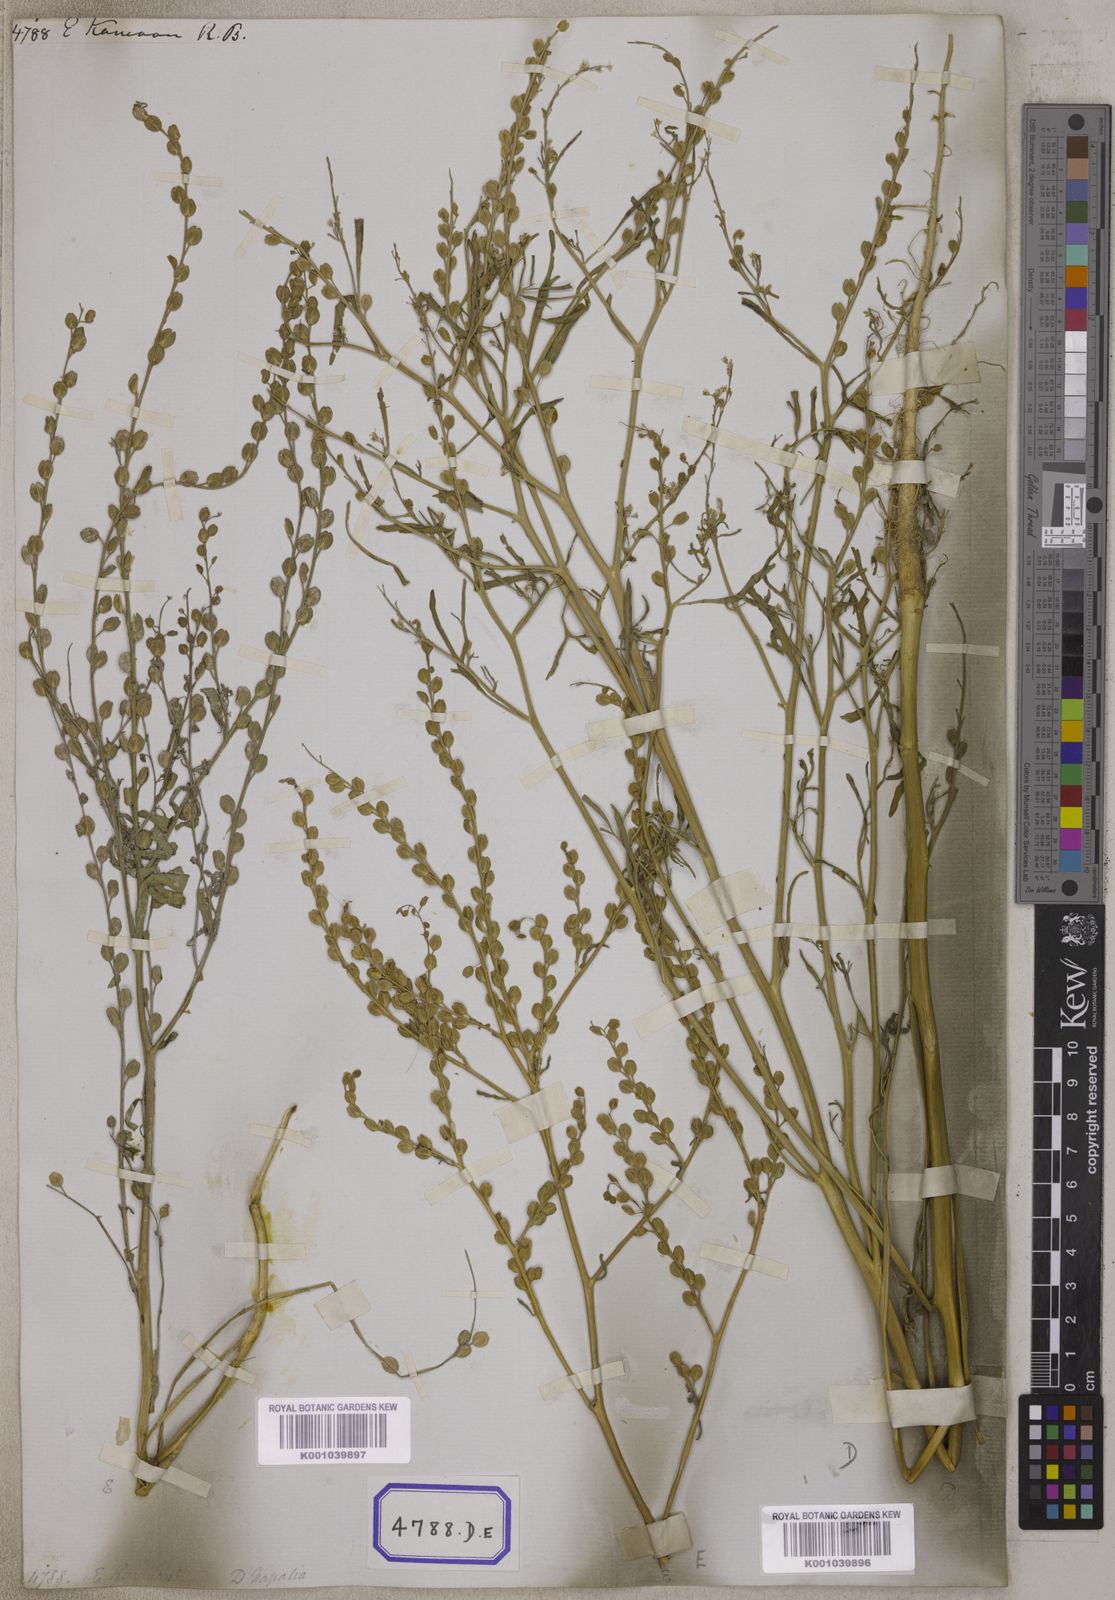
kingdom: Plantae
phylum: Tracheophyta
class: Magnoliopsida
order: Brassicales
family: Brassicaceae
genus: Lepidium
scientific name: Lepidium sativum
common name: Garden cress
